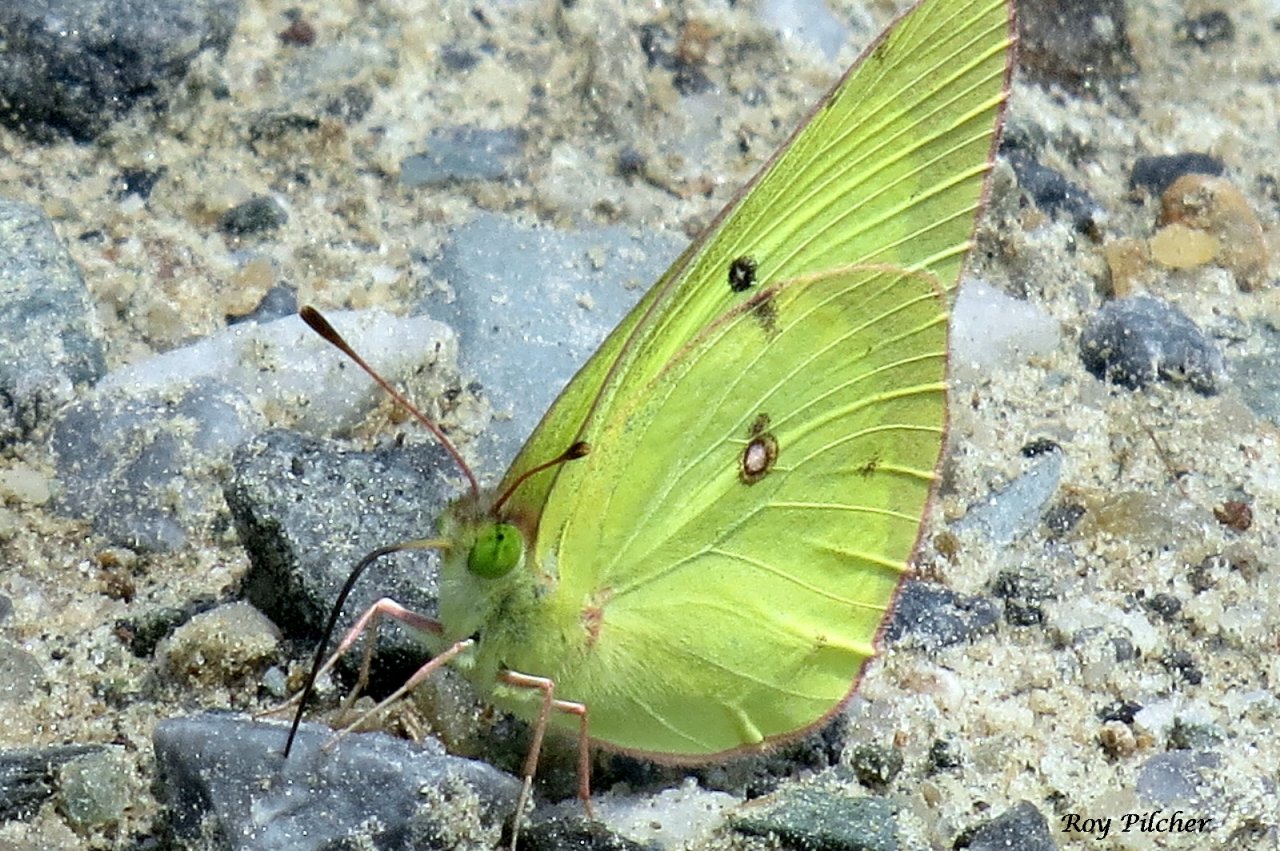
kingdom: Animalia
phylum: Arthropoda
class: Insecta
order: Lepidoptera
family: Pieridae
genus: Colias
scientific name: Colias philodice
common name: Clouded Sulphur
